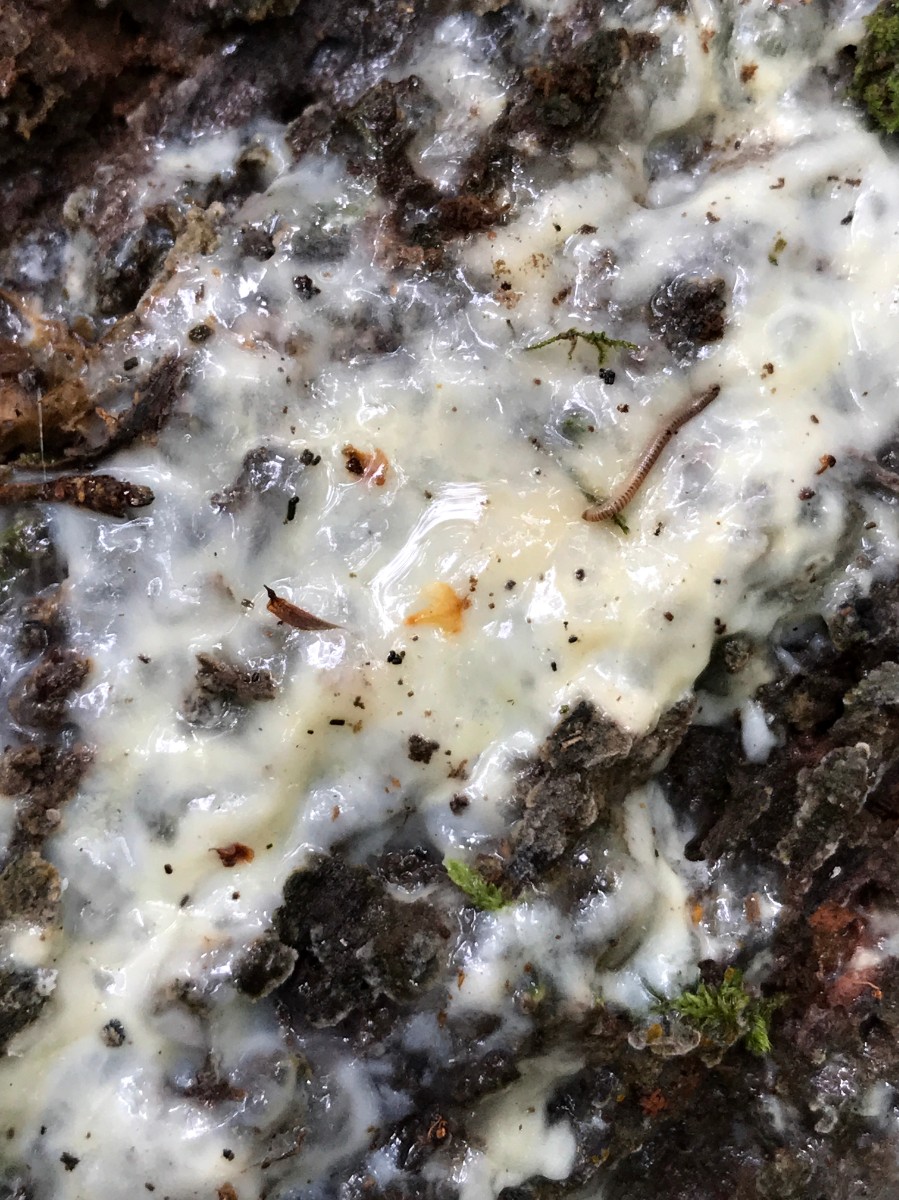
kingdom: Protozoa
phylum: Mycetozoa
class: Protosteliomycetes
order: Ceratiomyxales
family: Ceratiomyxaceae
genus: Ceratiomyxa
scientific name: Ceratiomyxa fruticulosa
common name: Honeycomb coral slime mold
